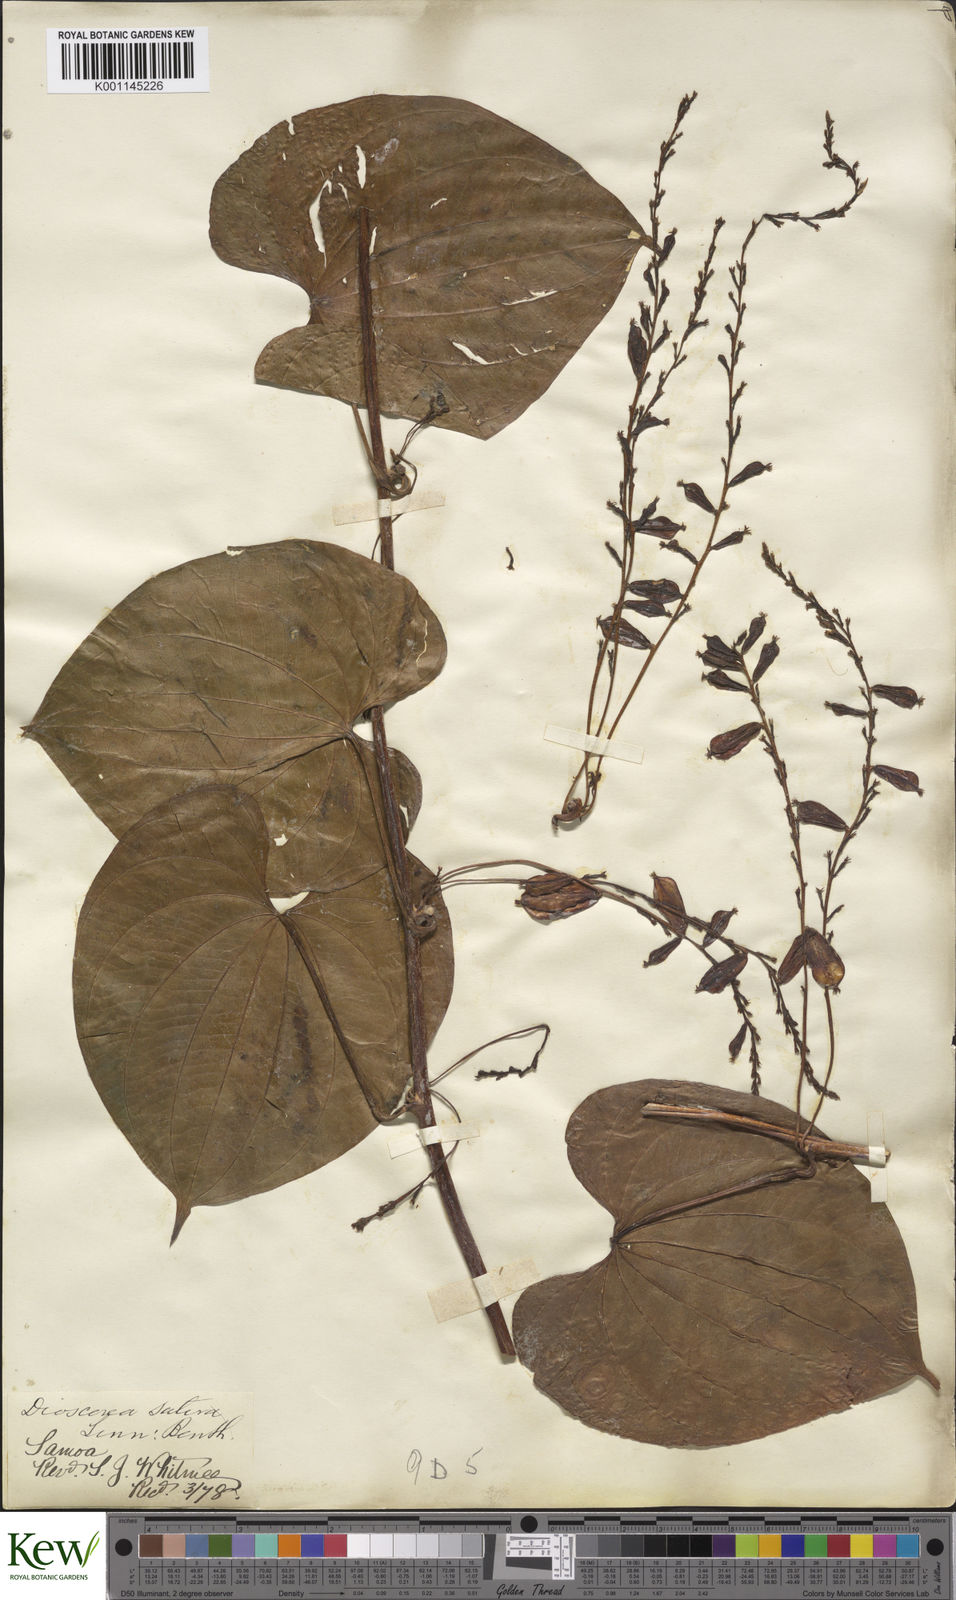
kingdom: Plantae
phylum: Tracheophyta
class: Liliopsida
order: Dioscoreales
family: Dioscoreaceae
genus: Dioscorea
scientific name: Dioscorea bulbifera
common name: Air yam
